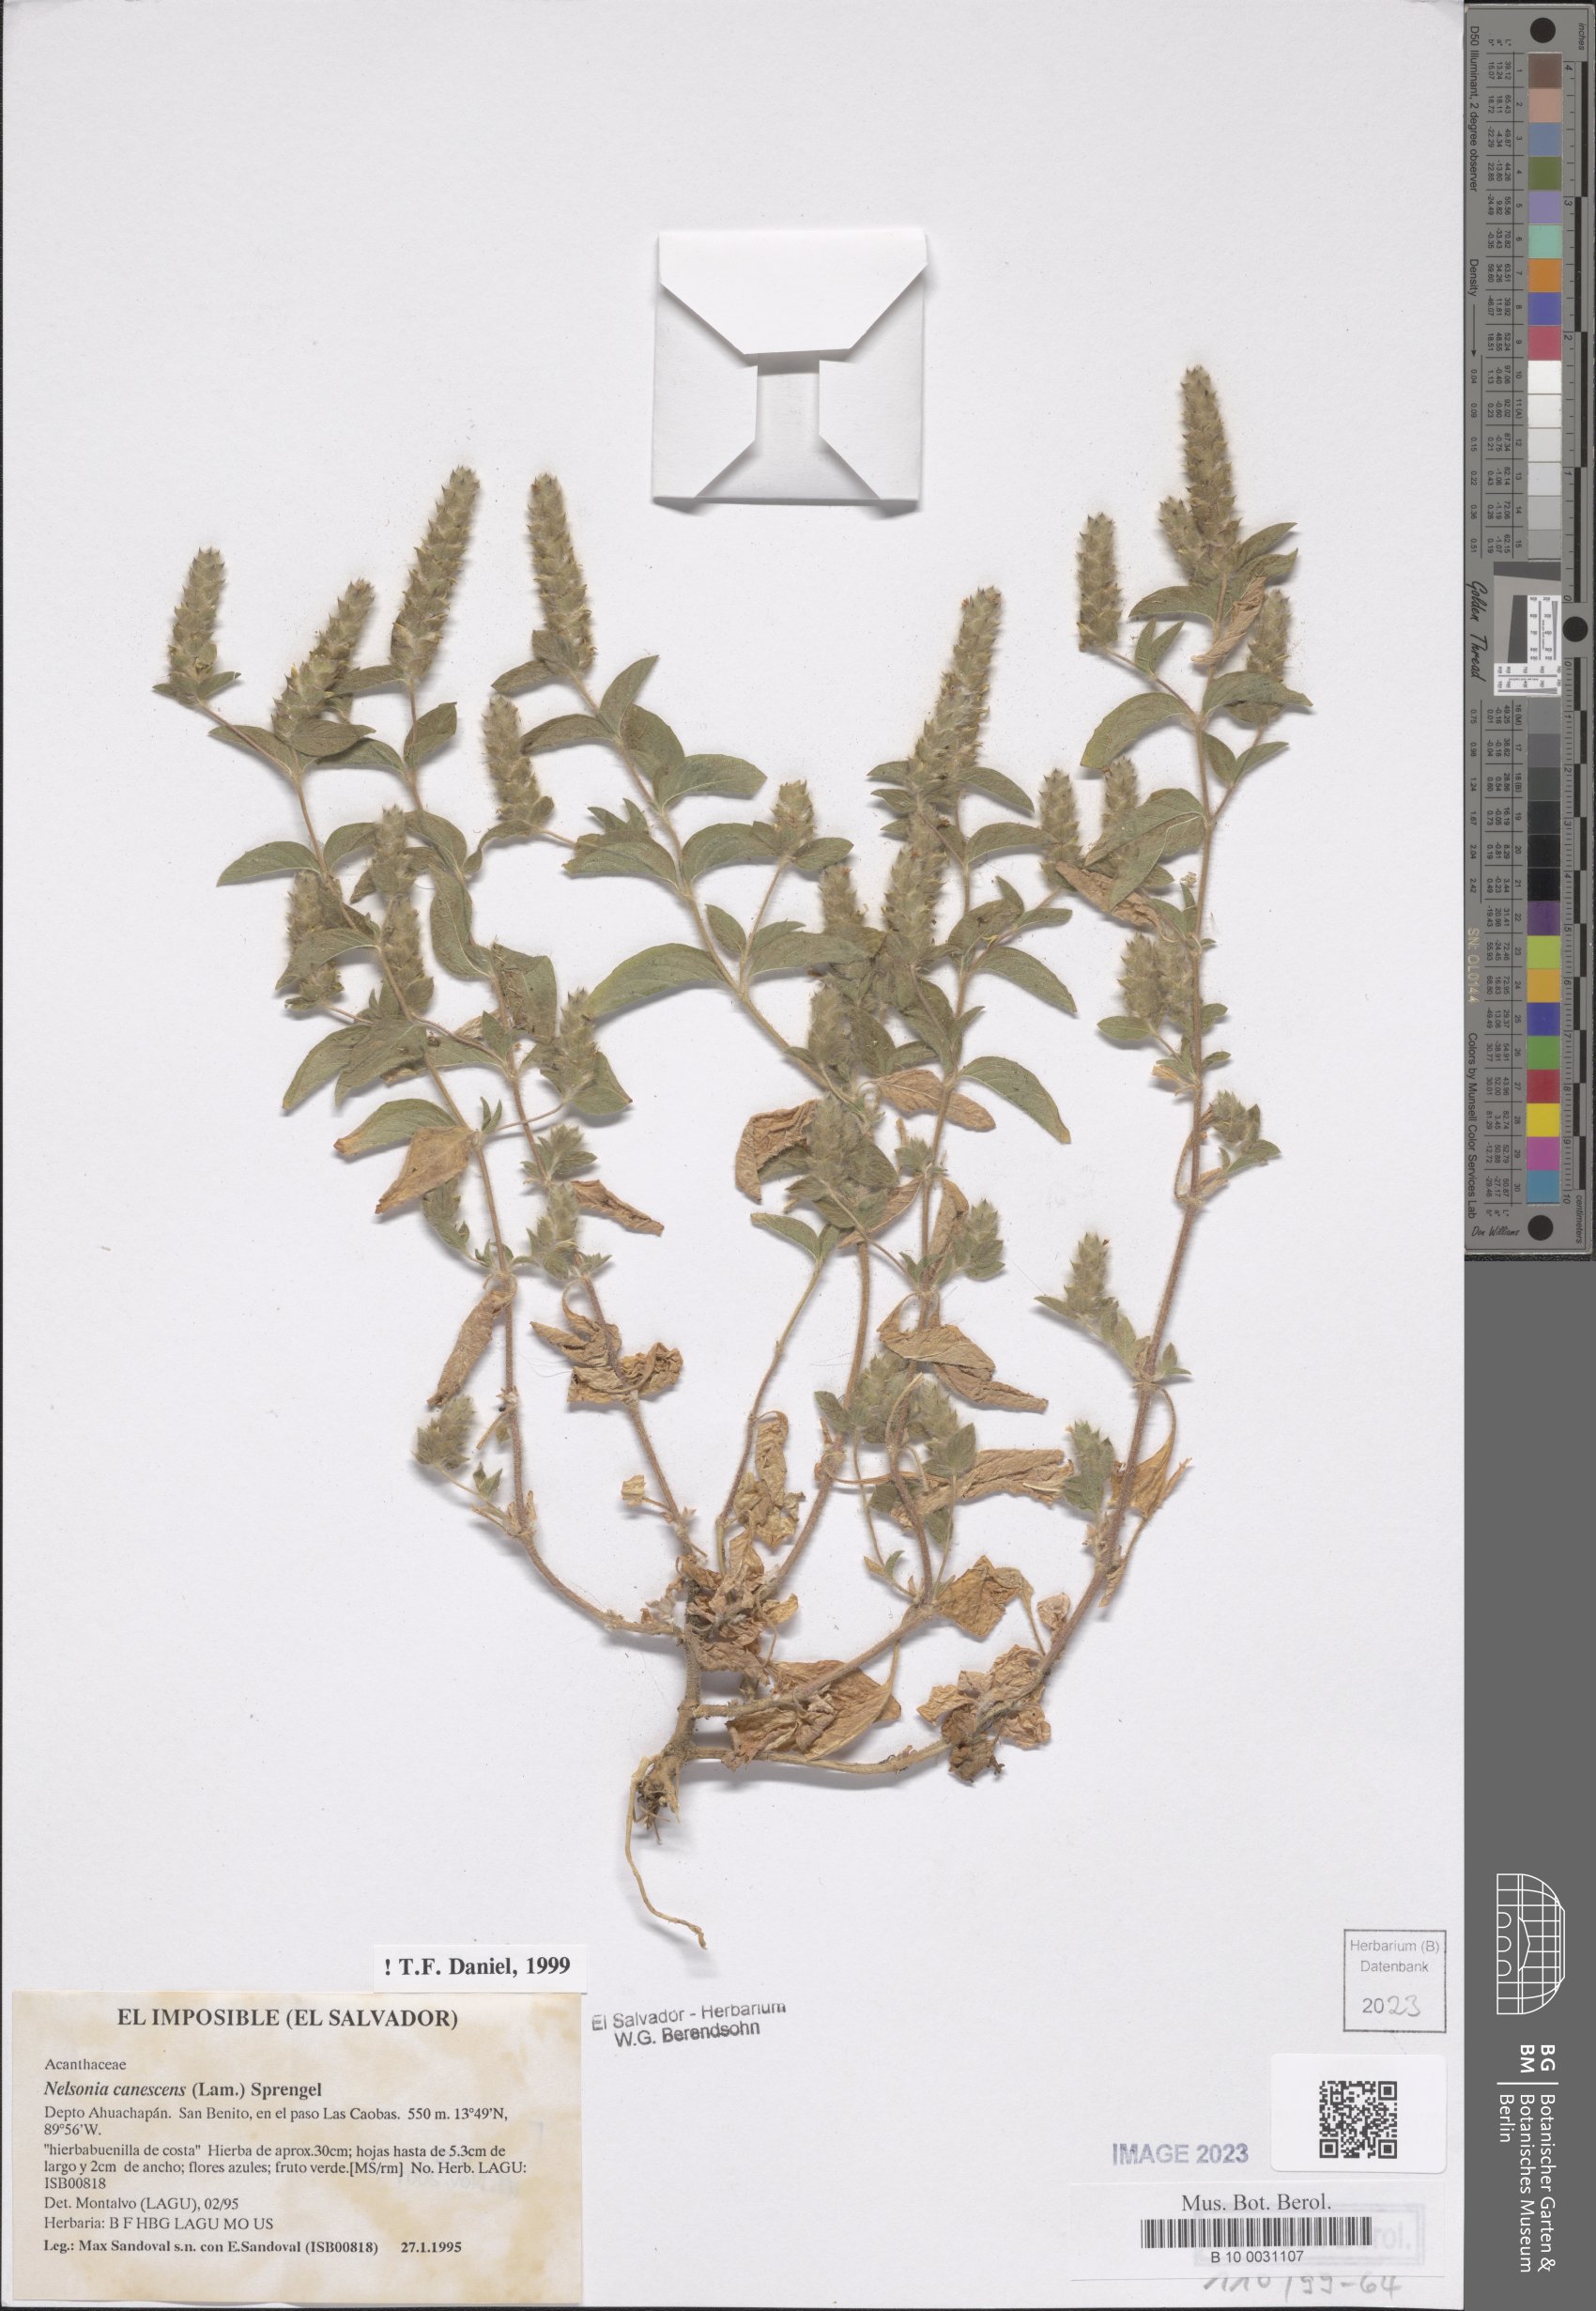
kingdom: Plantae
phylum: Tracheophyta
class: Magnoliopsida
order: Lamiales
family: Acanthaceae
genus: Nelsonia
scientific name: Nelsonia canescens
